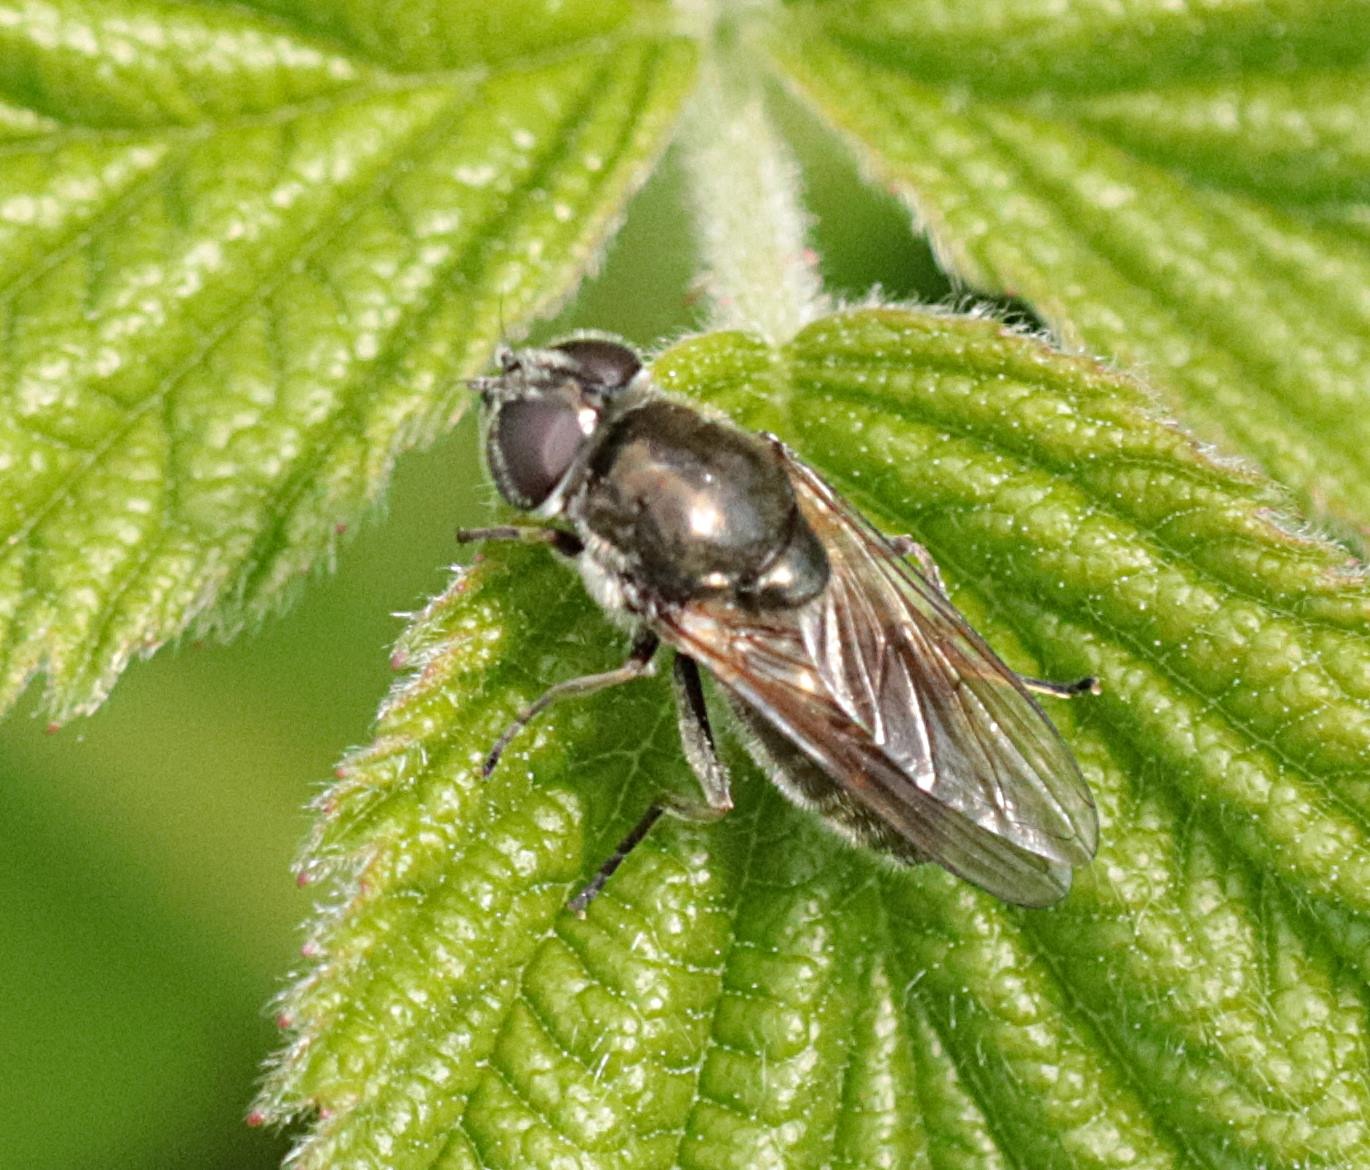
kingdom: Animalia
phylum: Arthropoda
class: Insecta
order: Diptera
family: Syrphidae
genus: Cheilosia
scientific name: Cheilosia
